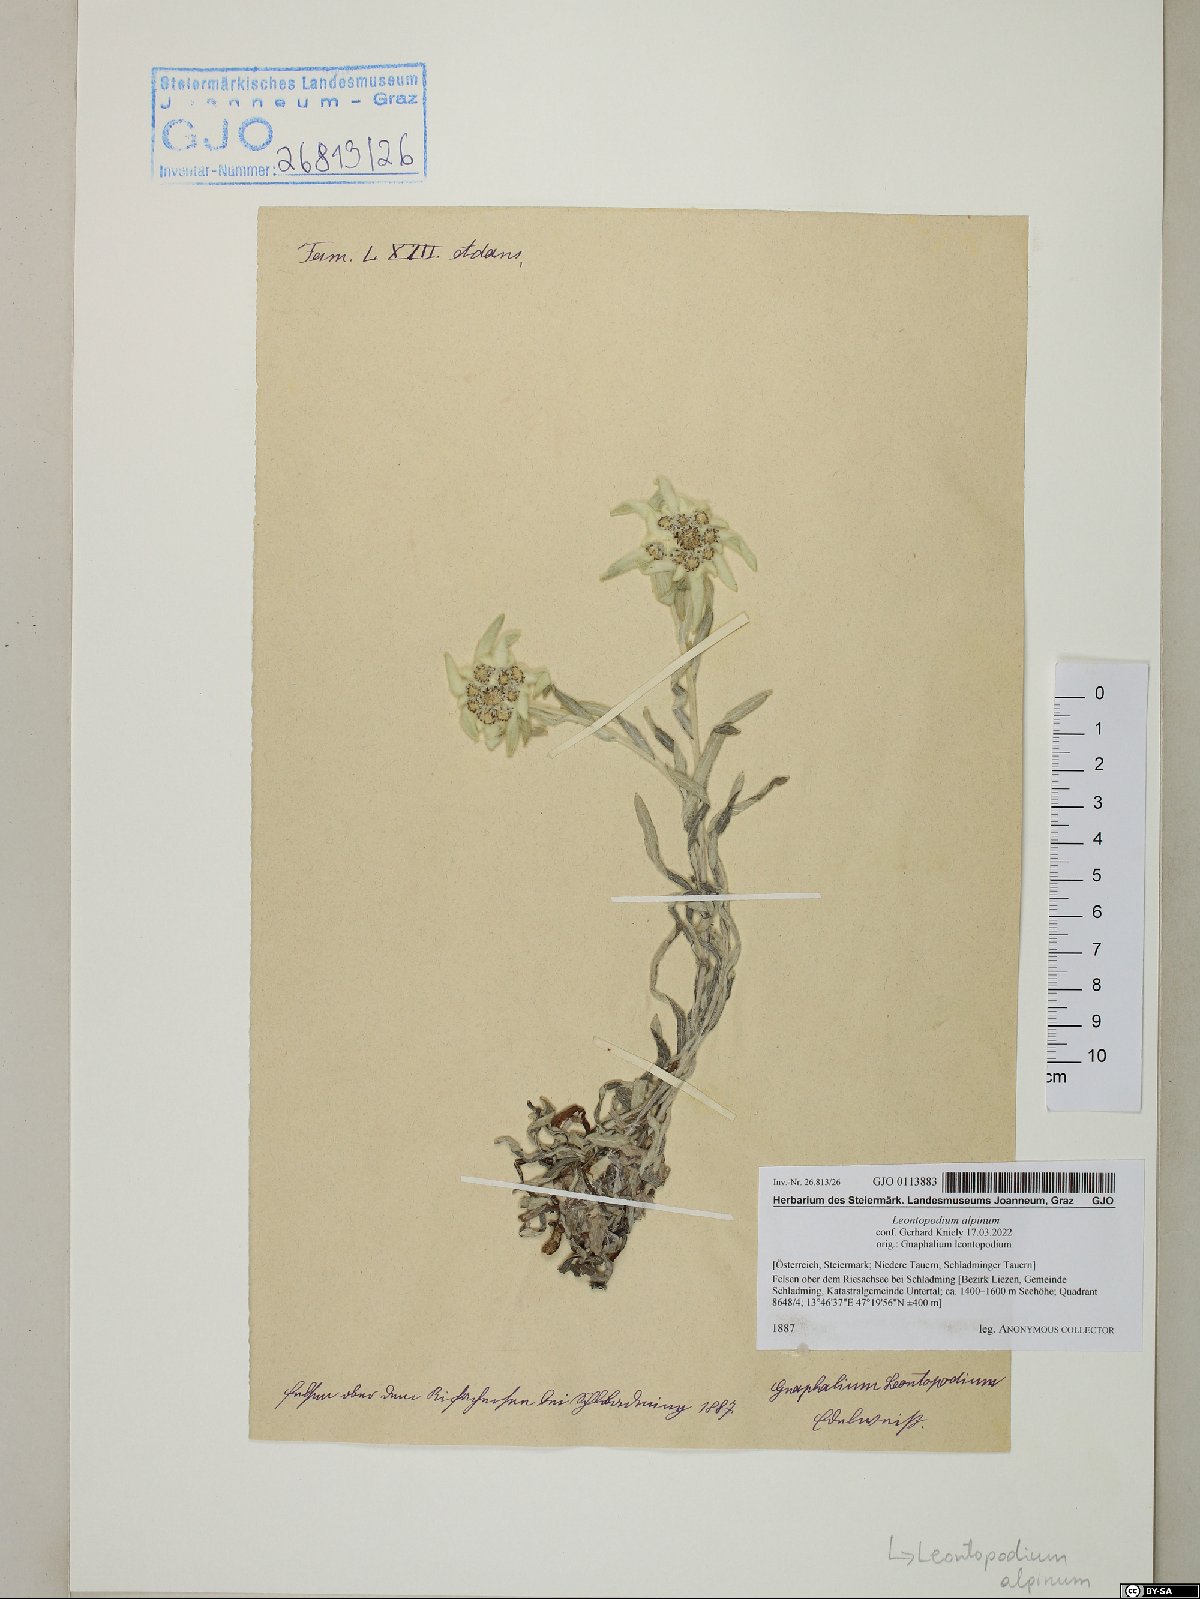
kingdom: Plantae
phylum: Tracheophyta
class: Magnoliopsida
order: Asterales
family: Asteraceae
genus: Leontopodium
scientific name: Leontopodium nivale
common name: Edelweiss
